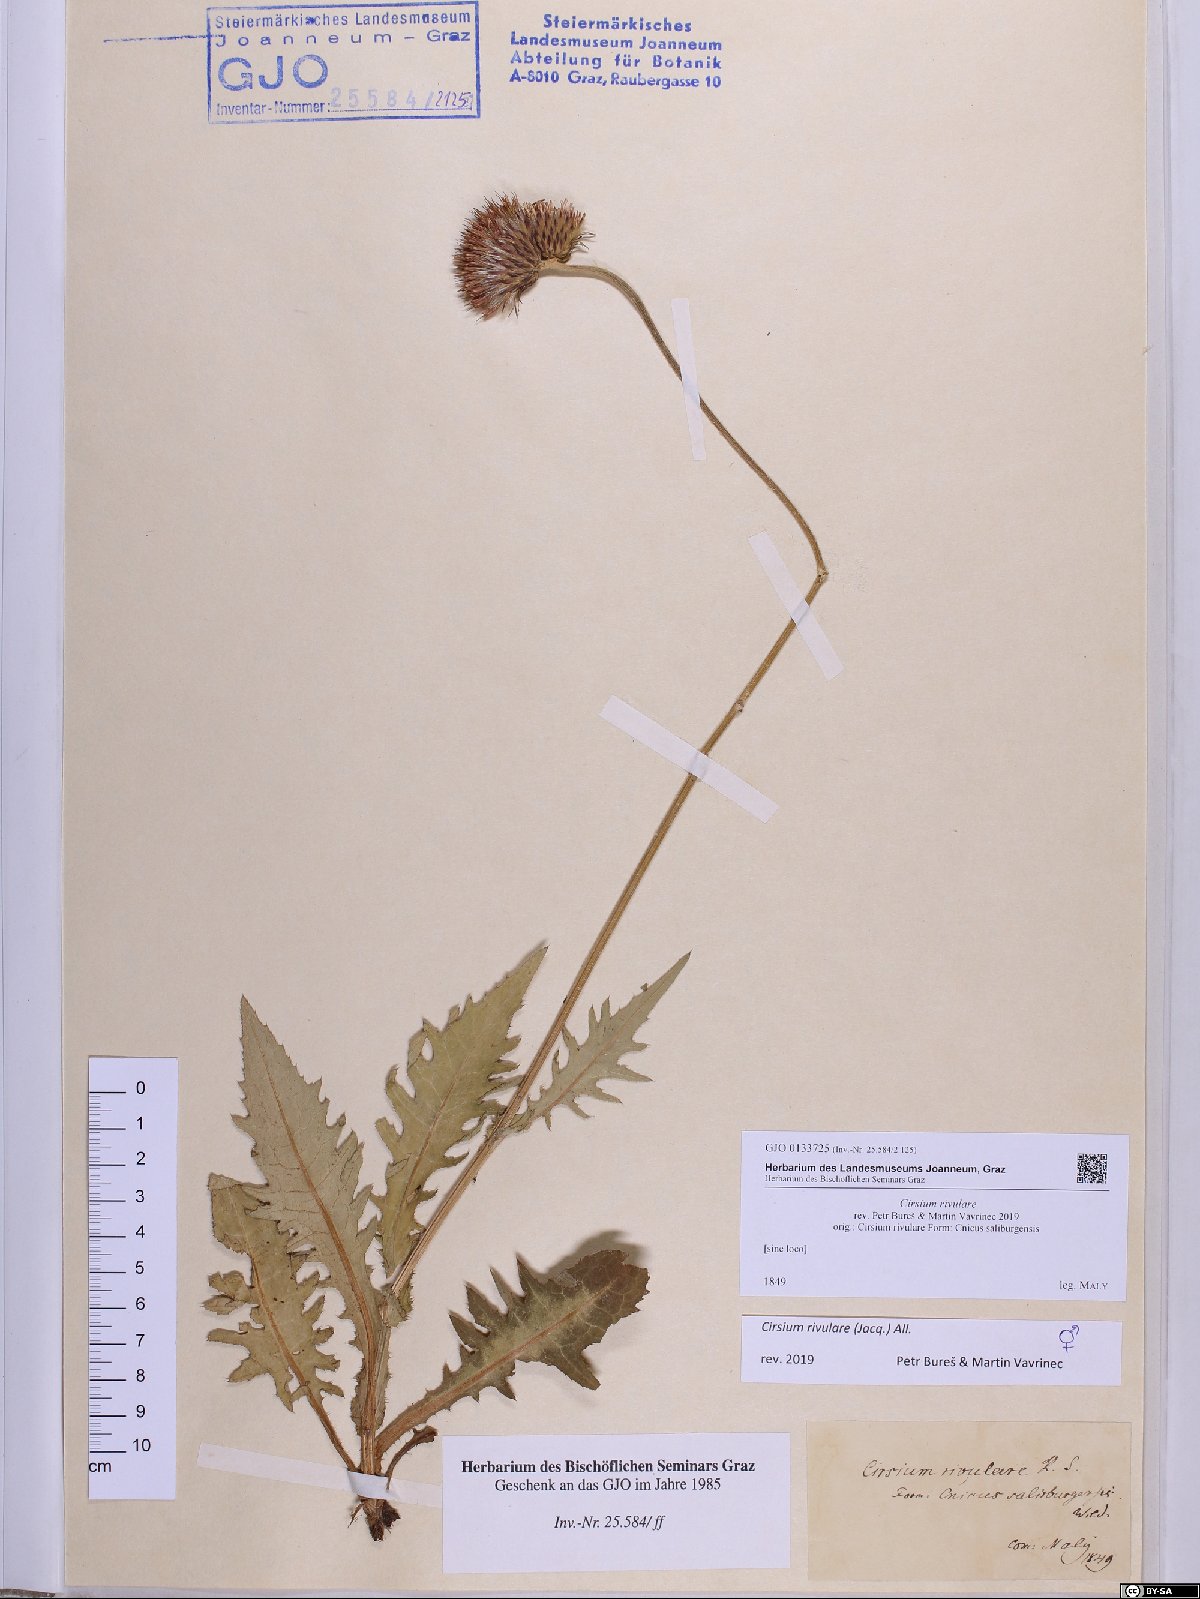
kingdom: Plantae
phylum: Tracheophyta
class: Magnoliopsida
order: Asterales
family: Asteraceae
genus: Cirsium
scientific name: Cirsium rivulare
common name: Brook thistle
